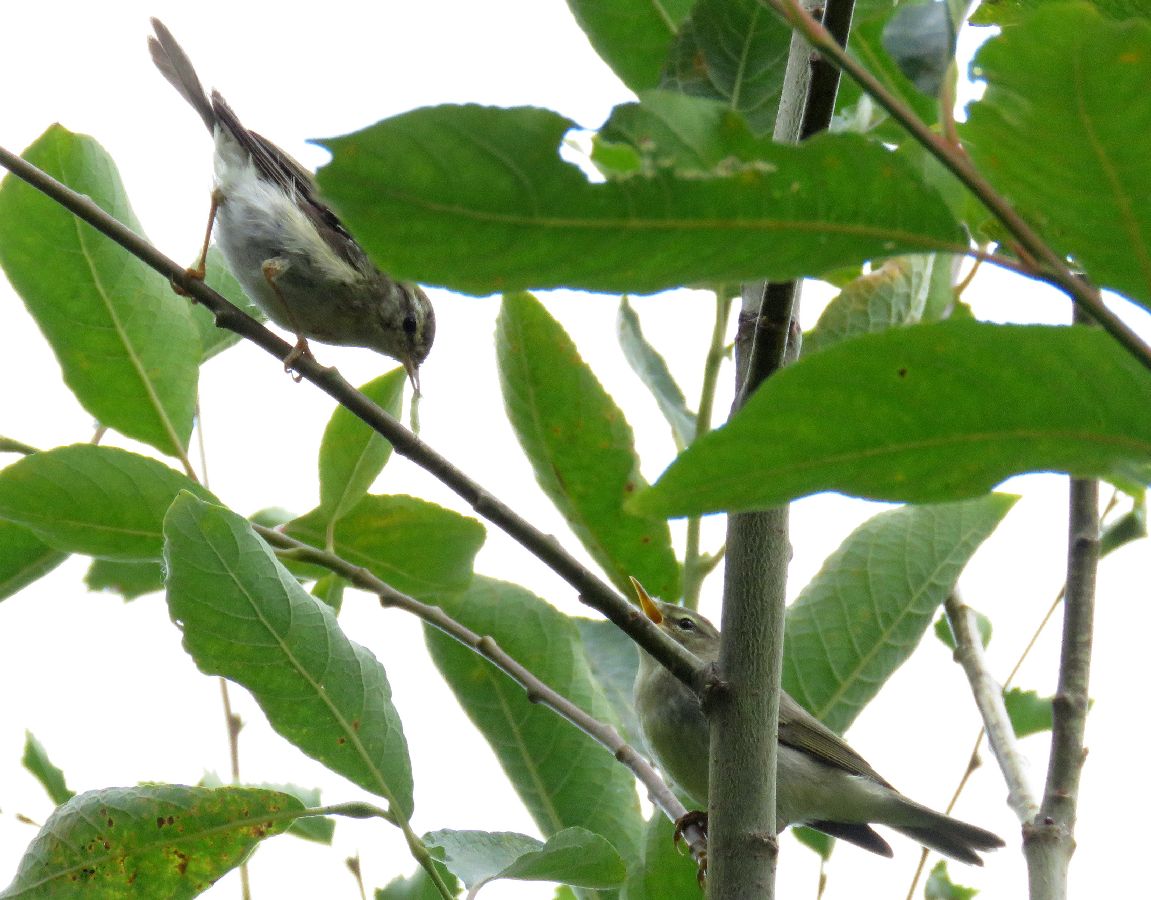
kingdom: Animalia
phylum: Chordata
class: Aves
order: Passeriformes
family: Phylloscopidae
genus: Phylloscopus
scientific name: Phylloscopus trochilus
